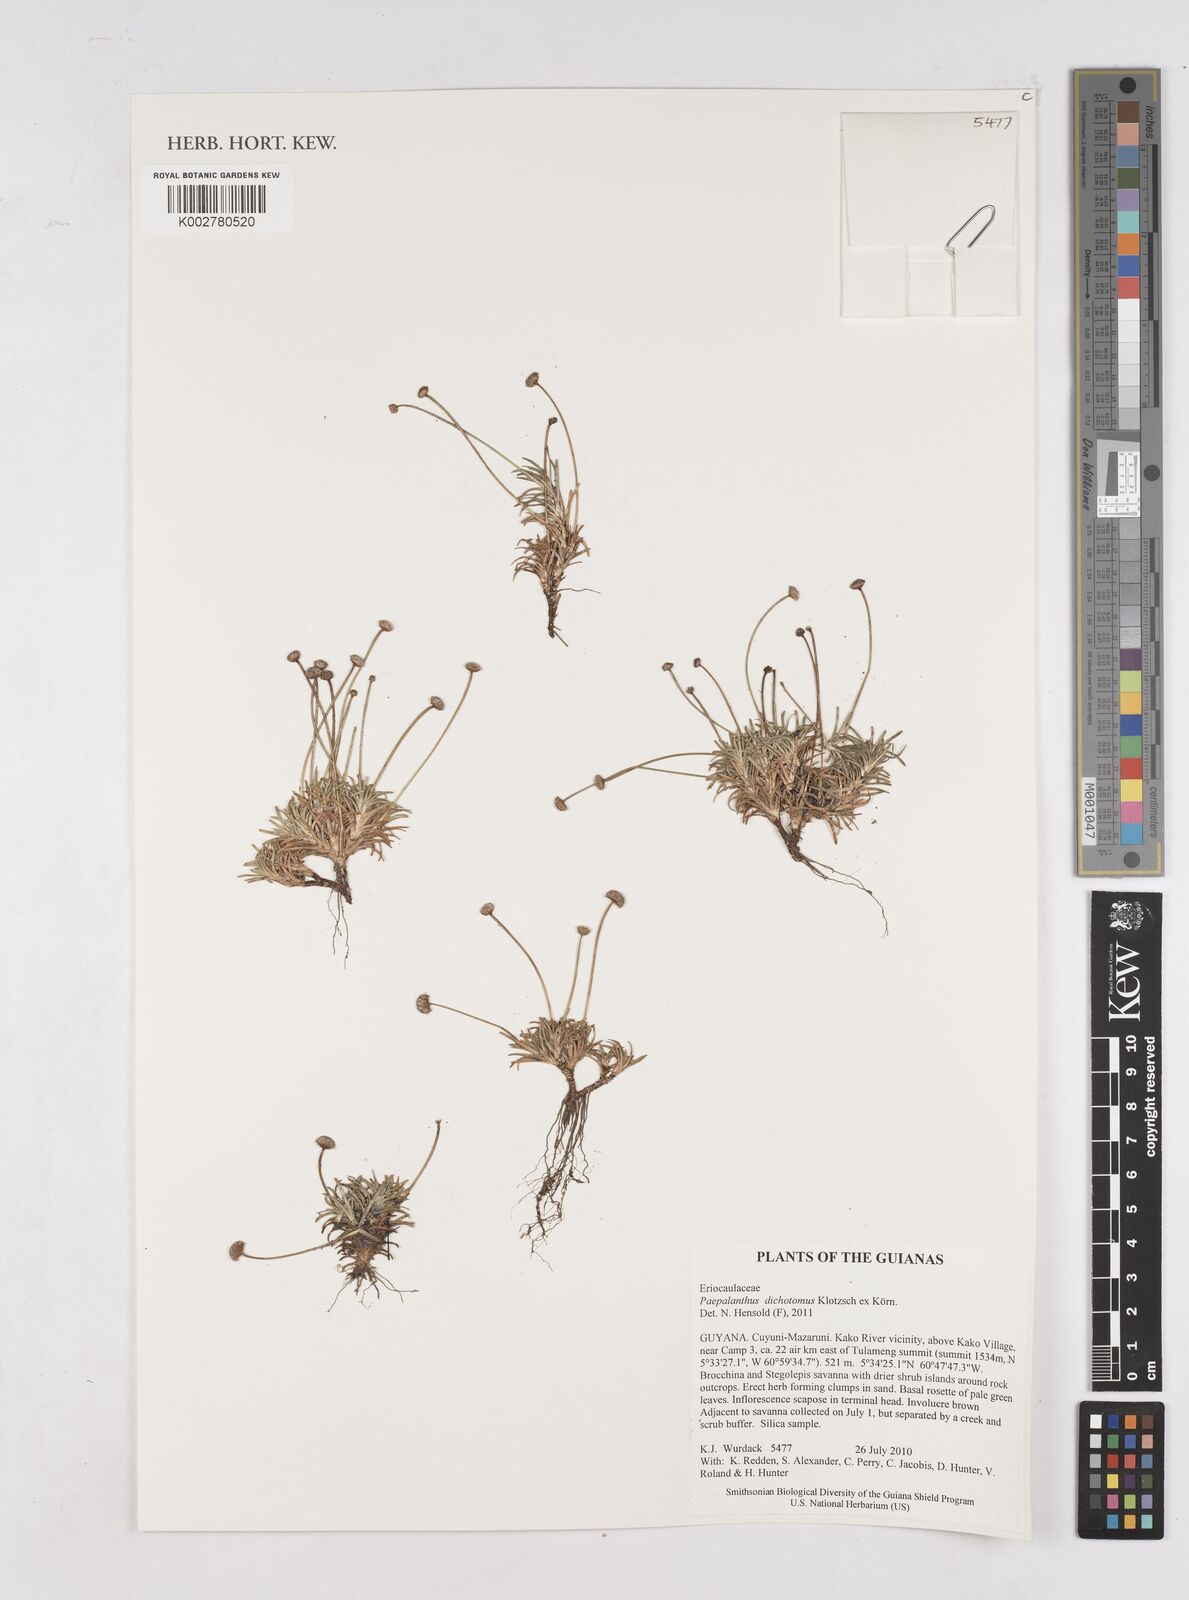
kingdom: Plantae
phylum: Tracheophyta
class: Liliopsida
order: Poales
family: Eriocaulaceae
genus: Paepalanthus
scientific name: Paepalanthus dichotomus
